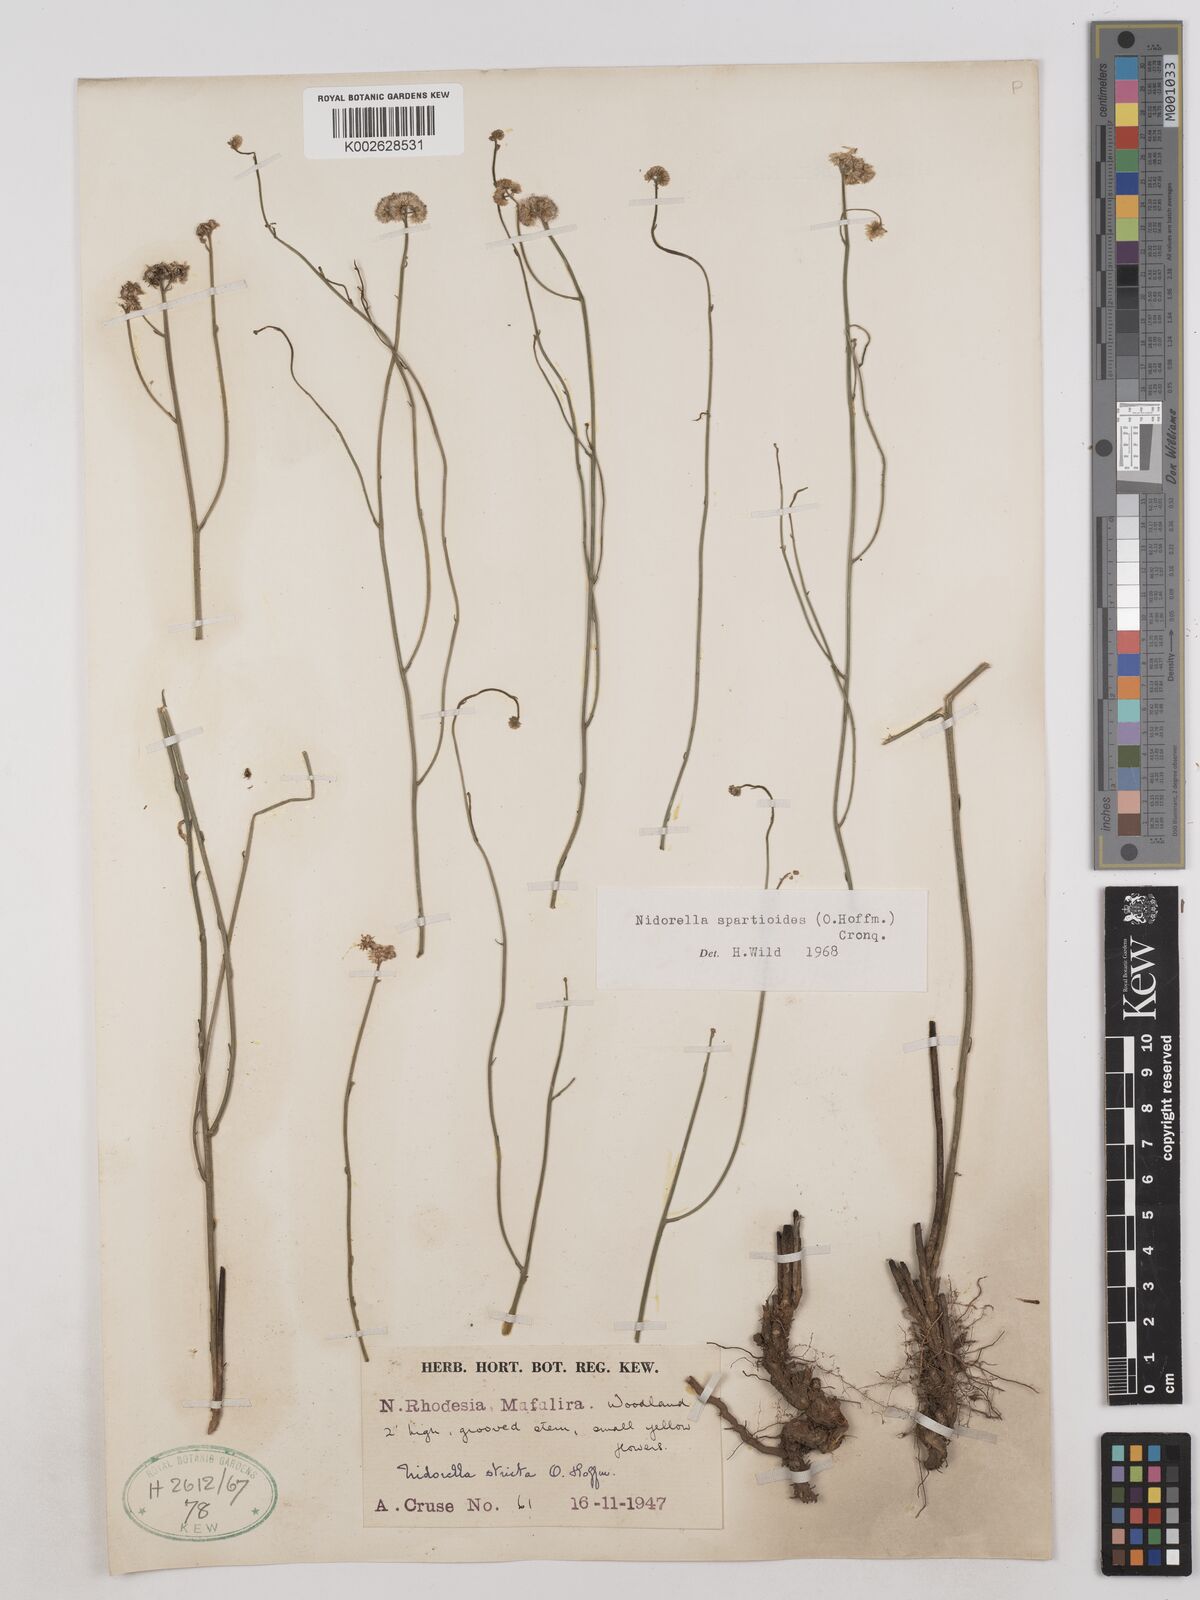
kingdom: Plantae
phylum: Tracheophyta
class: Magnoliopsida
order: Asterales
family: Asteraceae
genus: Nidorella
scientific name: Nidorella spartioides
